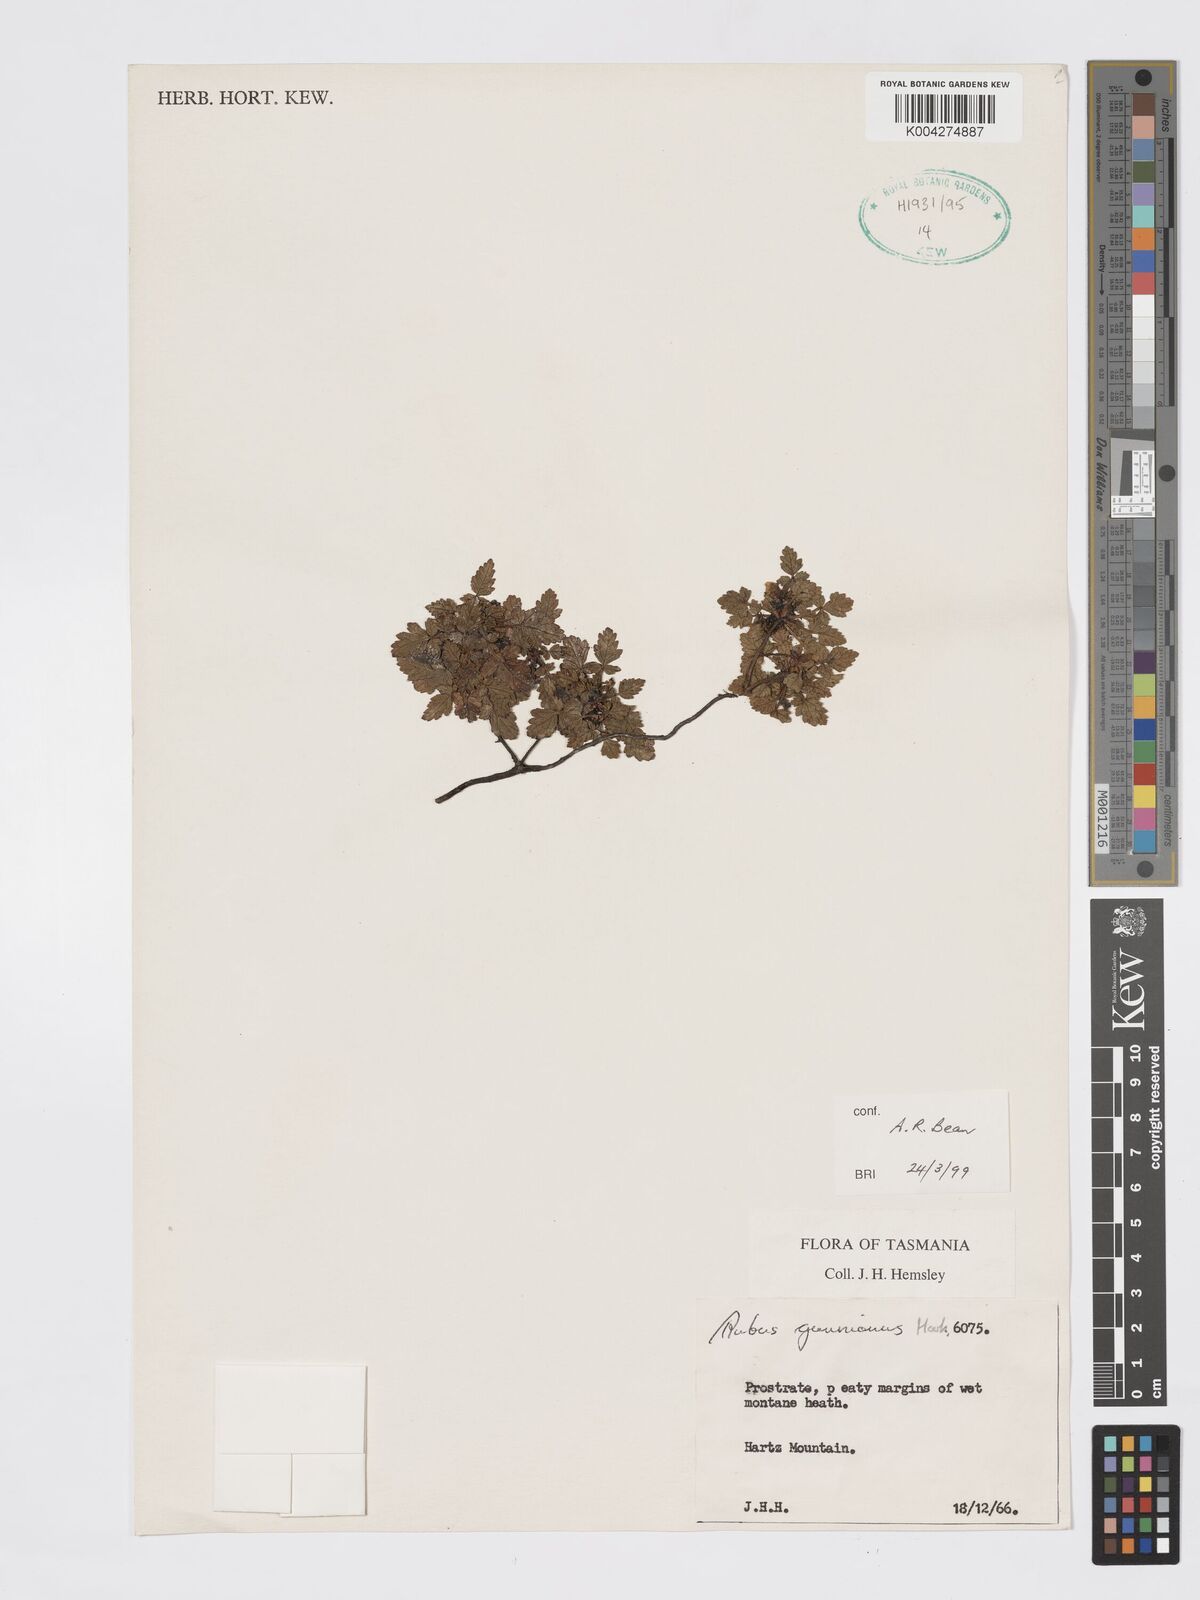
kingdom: Plantae
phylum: Tracheophyta
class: Magnoliopsida
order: Rosales
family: Rosaceae
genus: Rubus
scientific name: Rubus gunnianus
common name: Mountain raspberry
